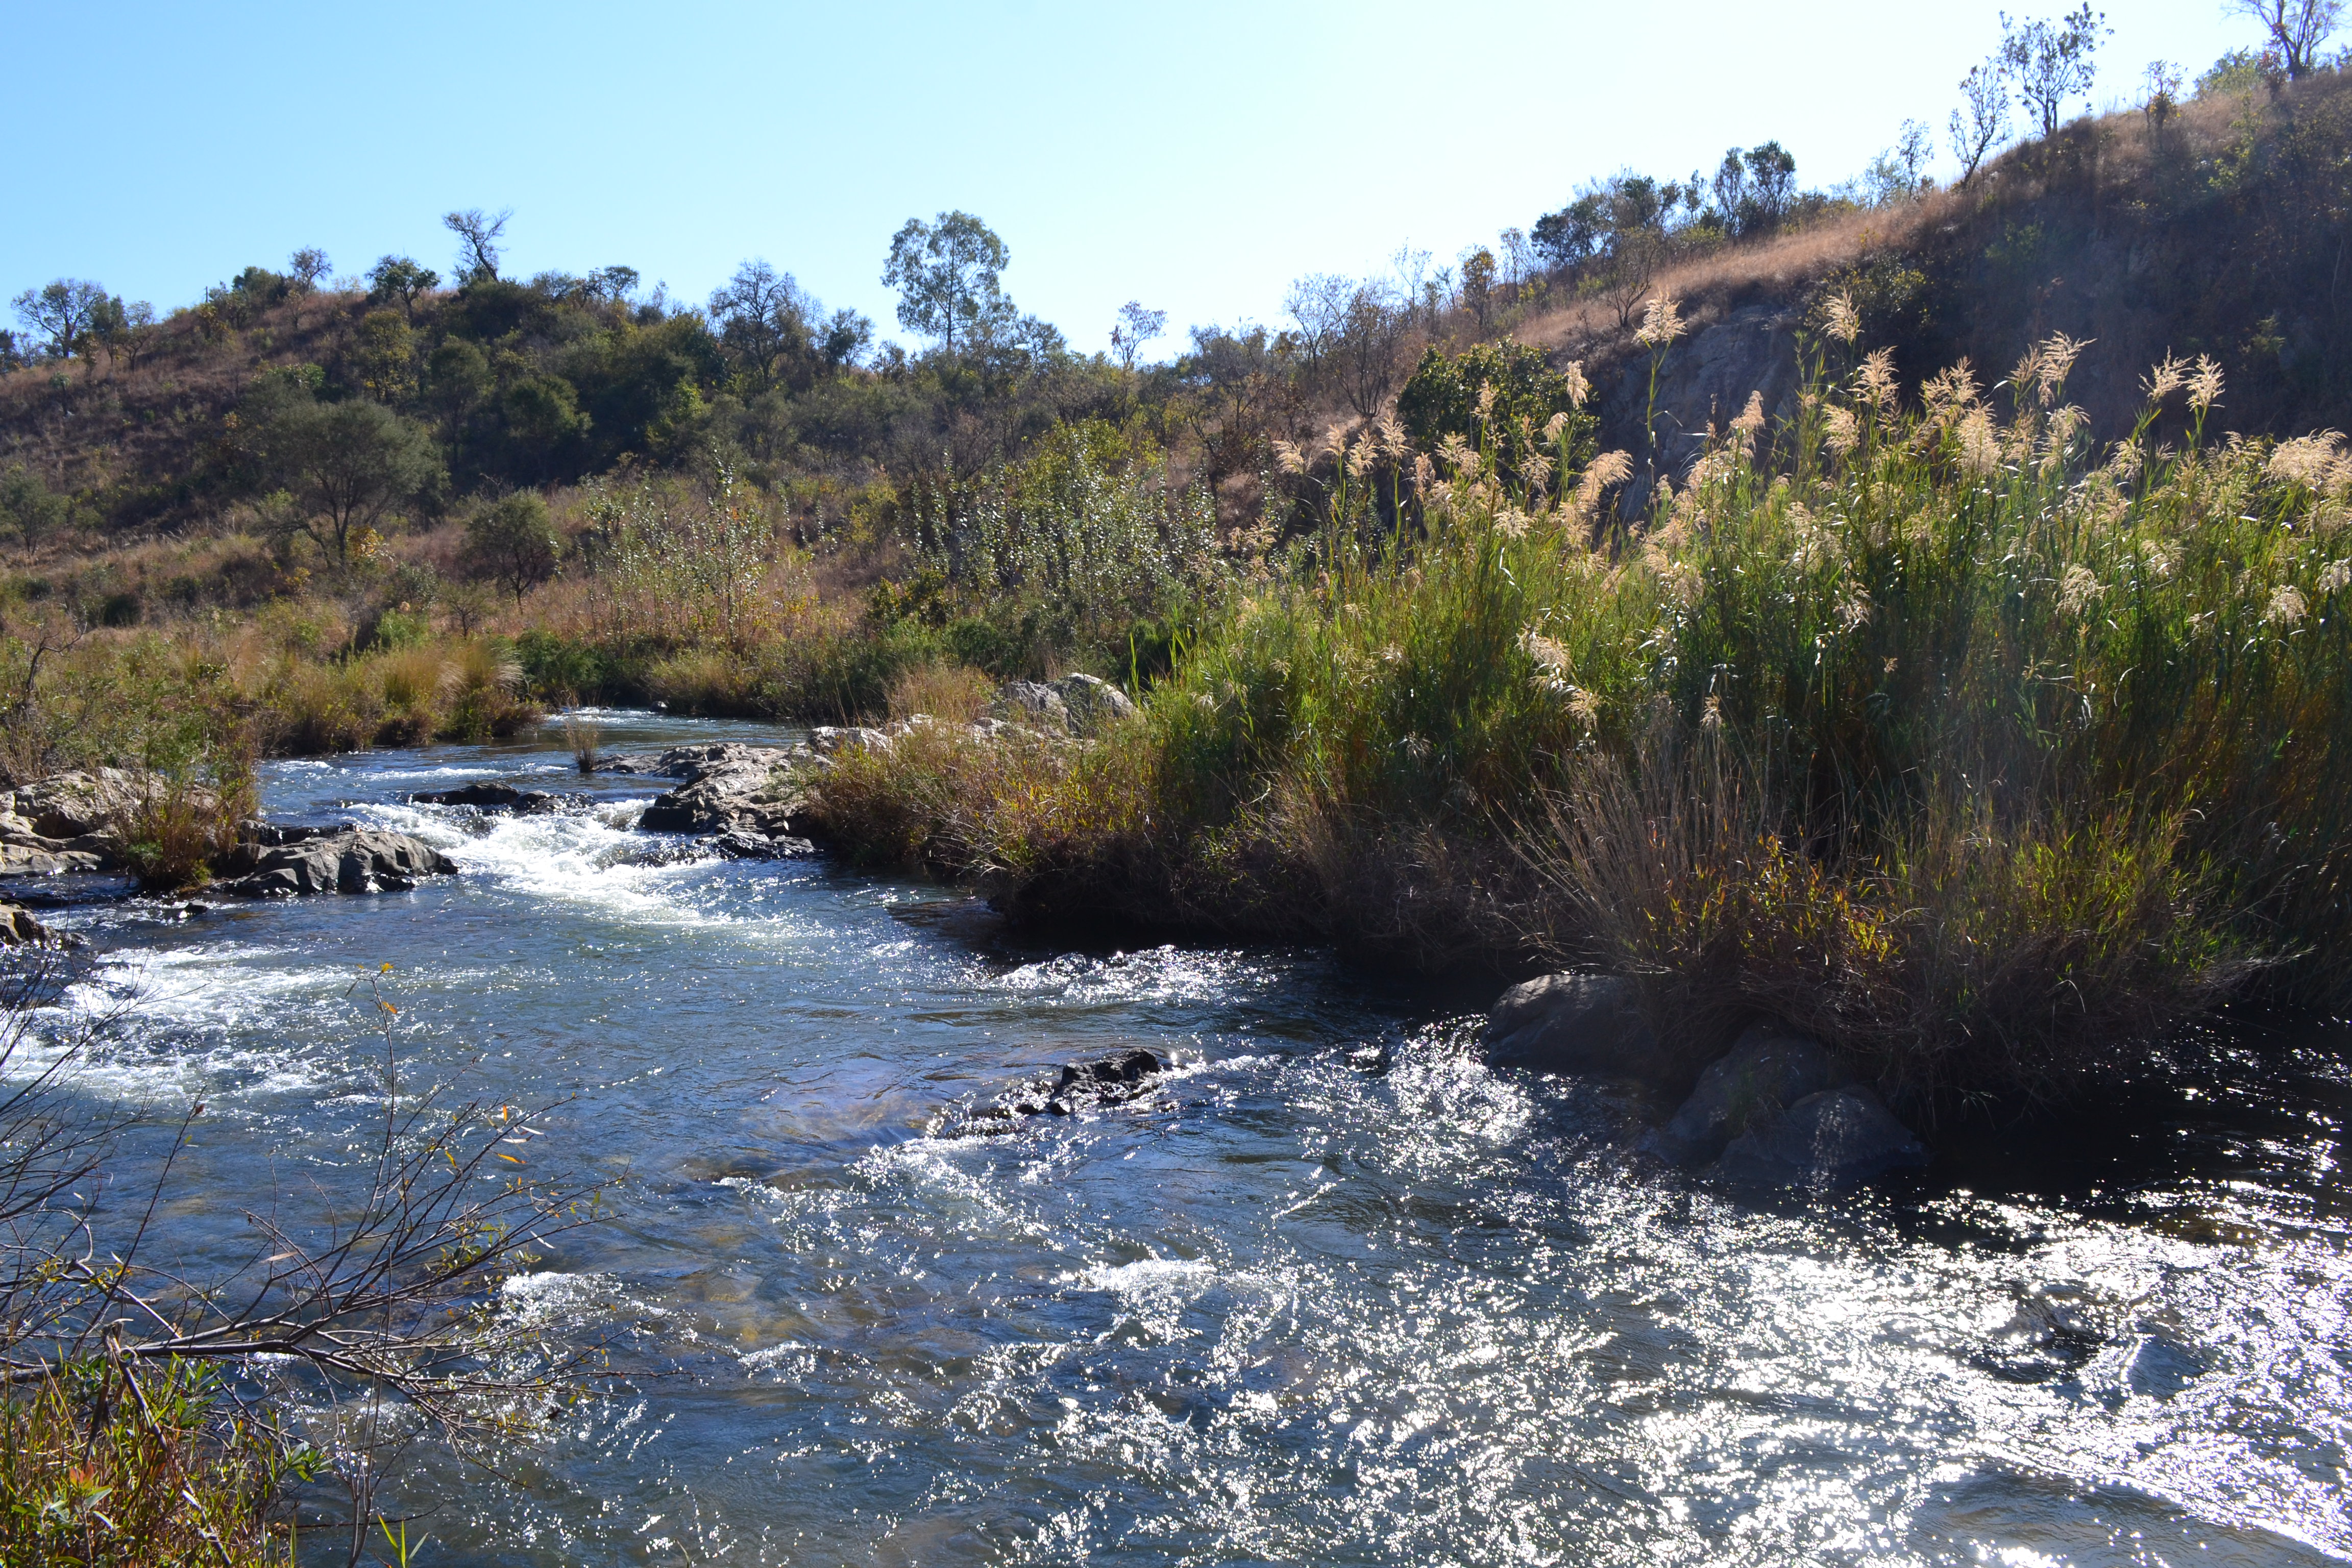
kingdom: Animalia
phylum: Chordata
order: Siluriformes
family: Amphiliidae
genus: Amphilius
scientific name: Amphilius uranoscopus
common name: Stargazer mountain catfish
